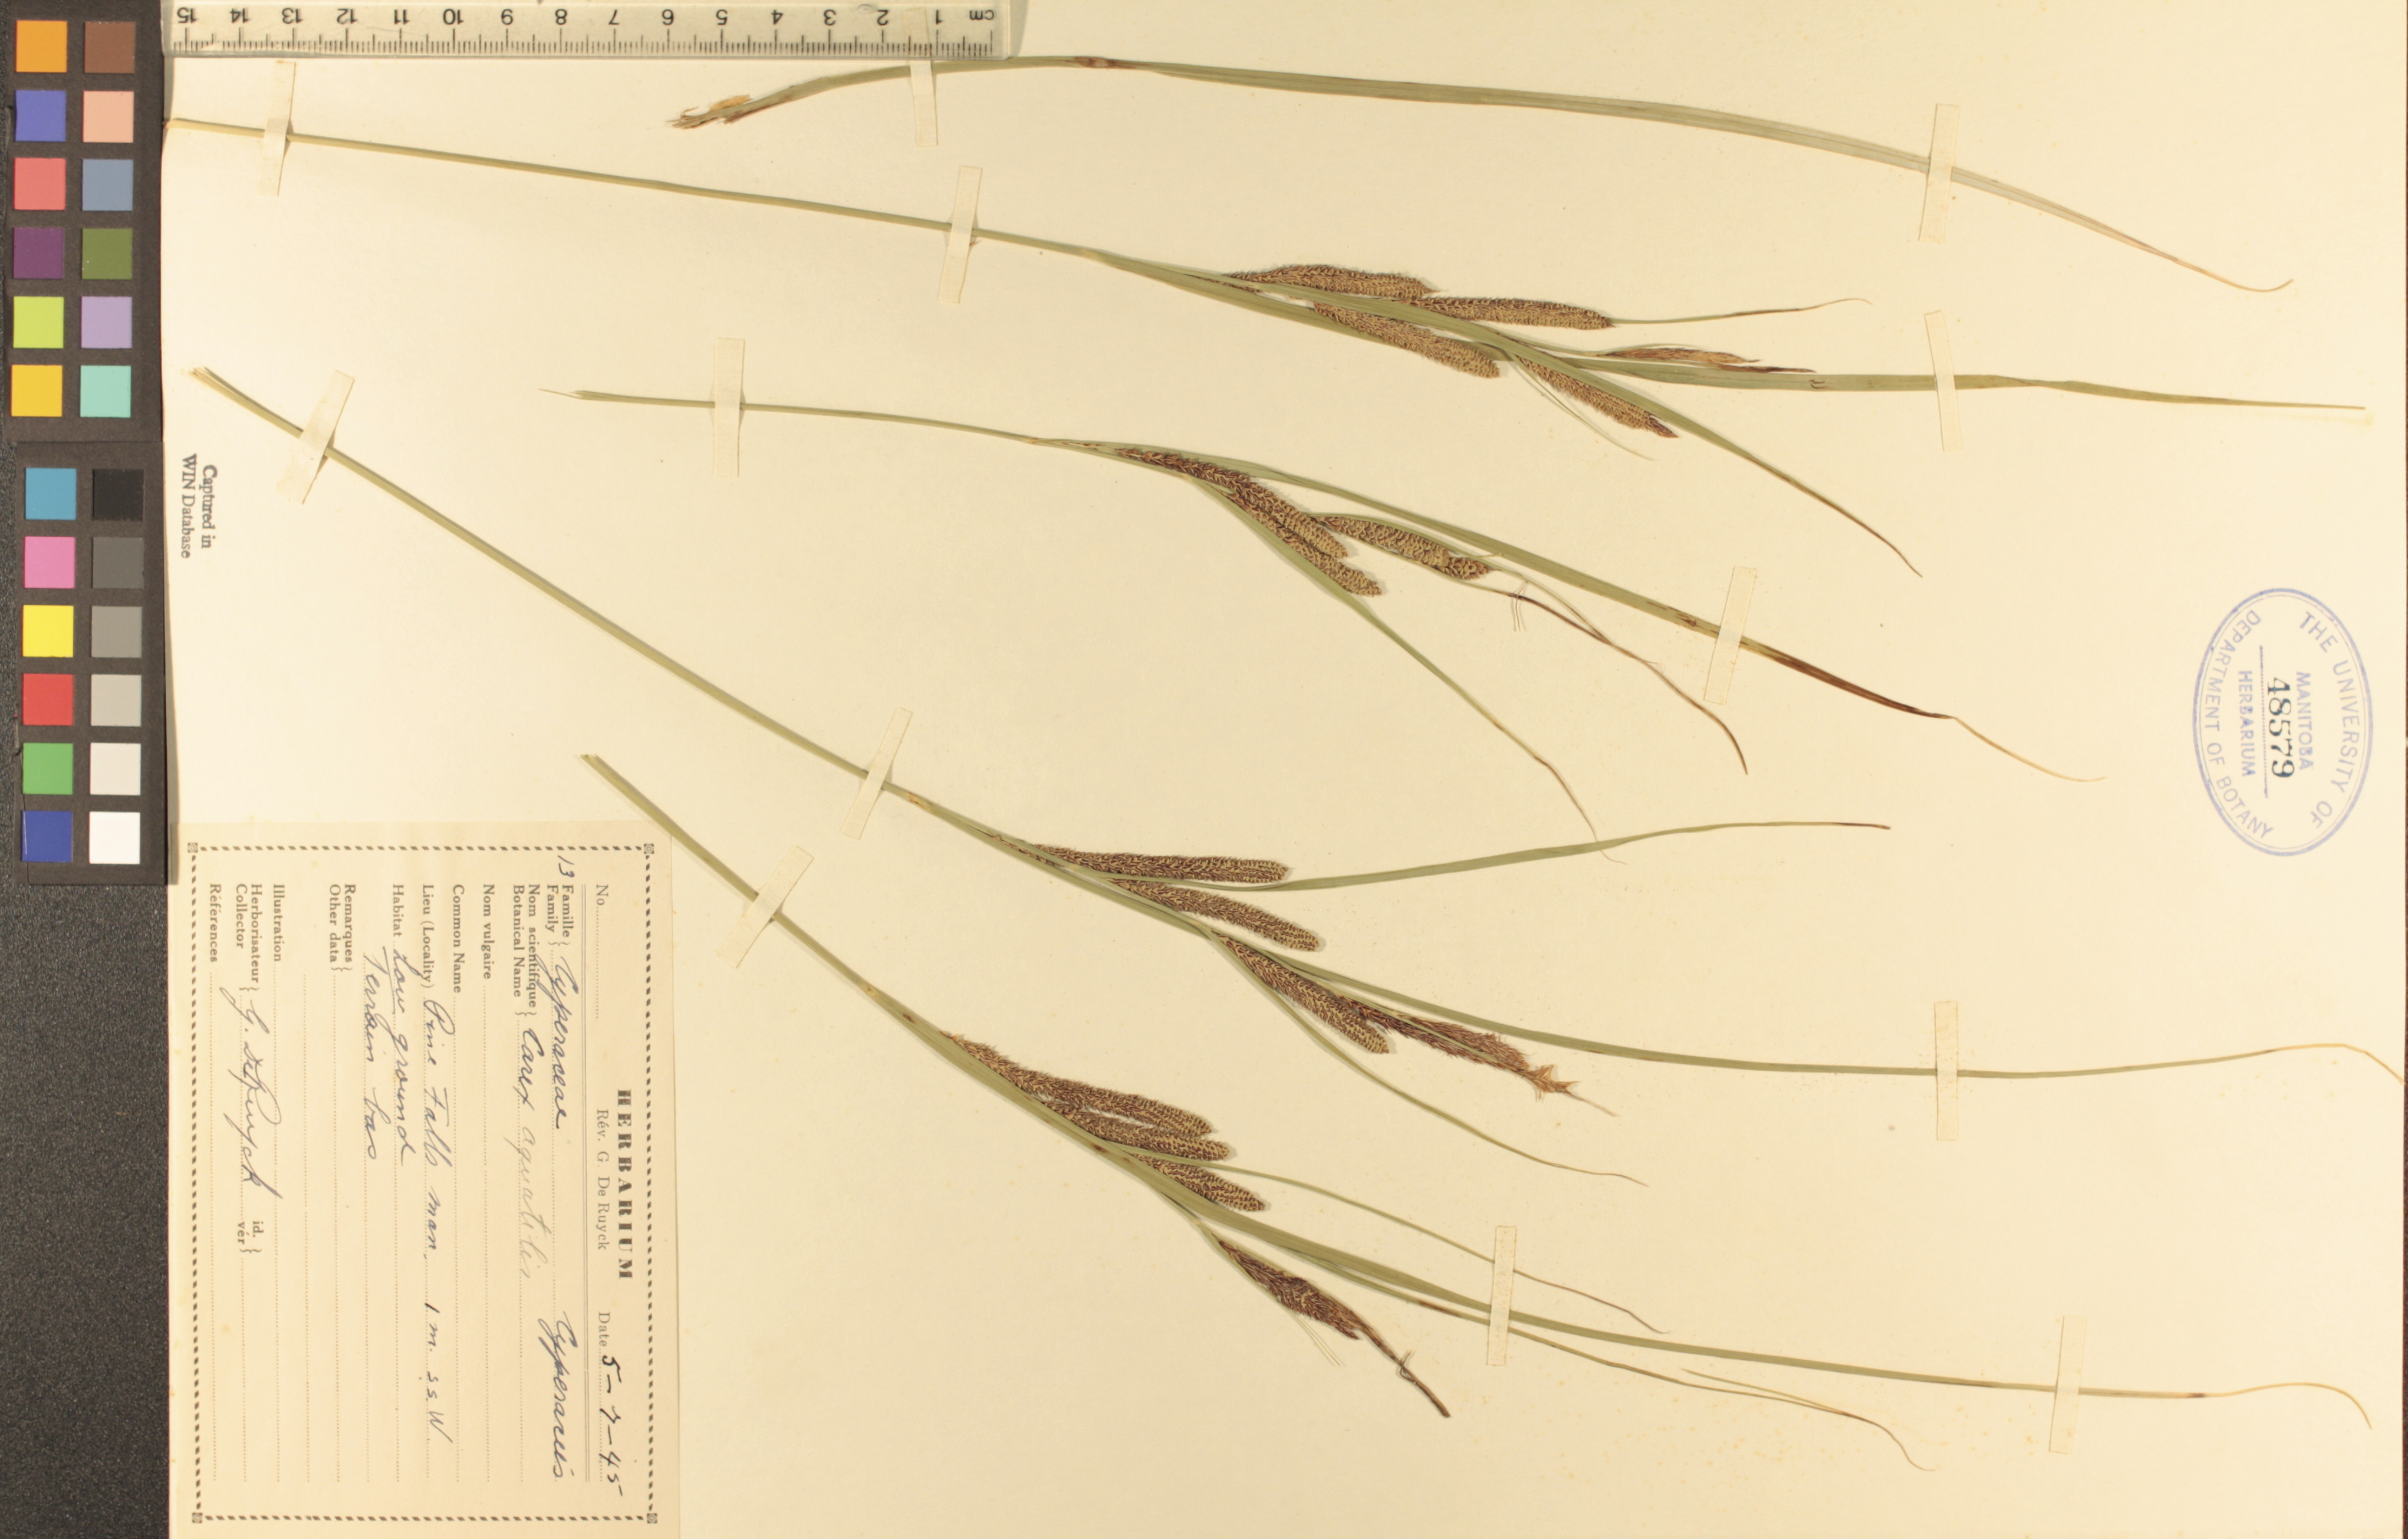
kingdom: Plantae
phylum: Tracheophyta
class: Liliopsida
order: Poales
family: Cyperaceae
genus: Carex
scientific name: Carex aquatilis
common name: Water sedge
